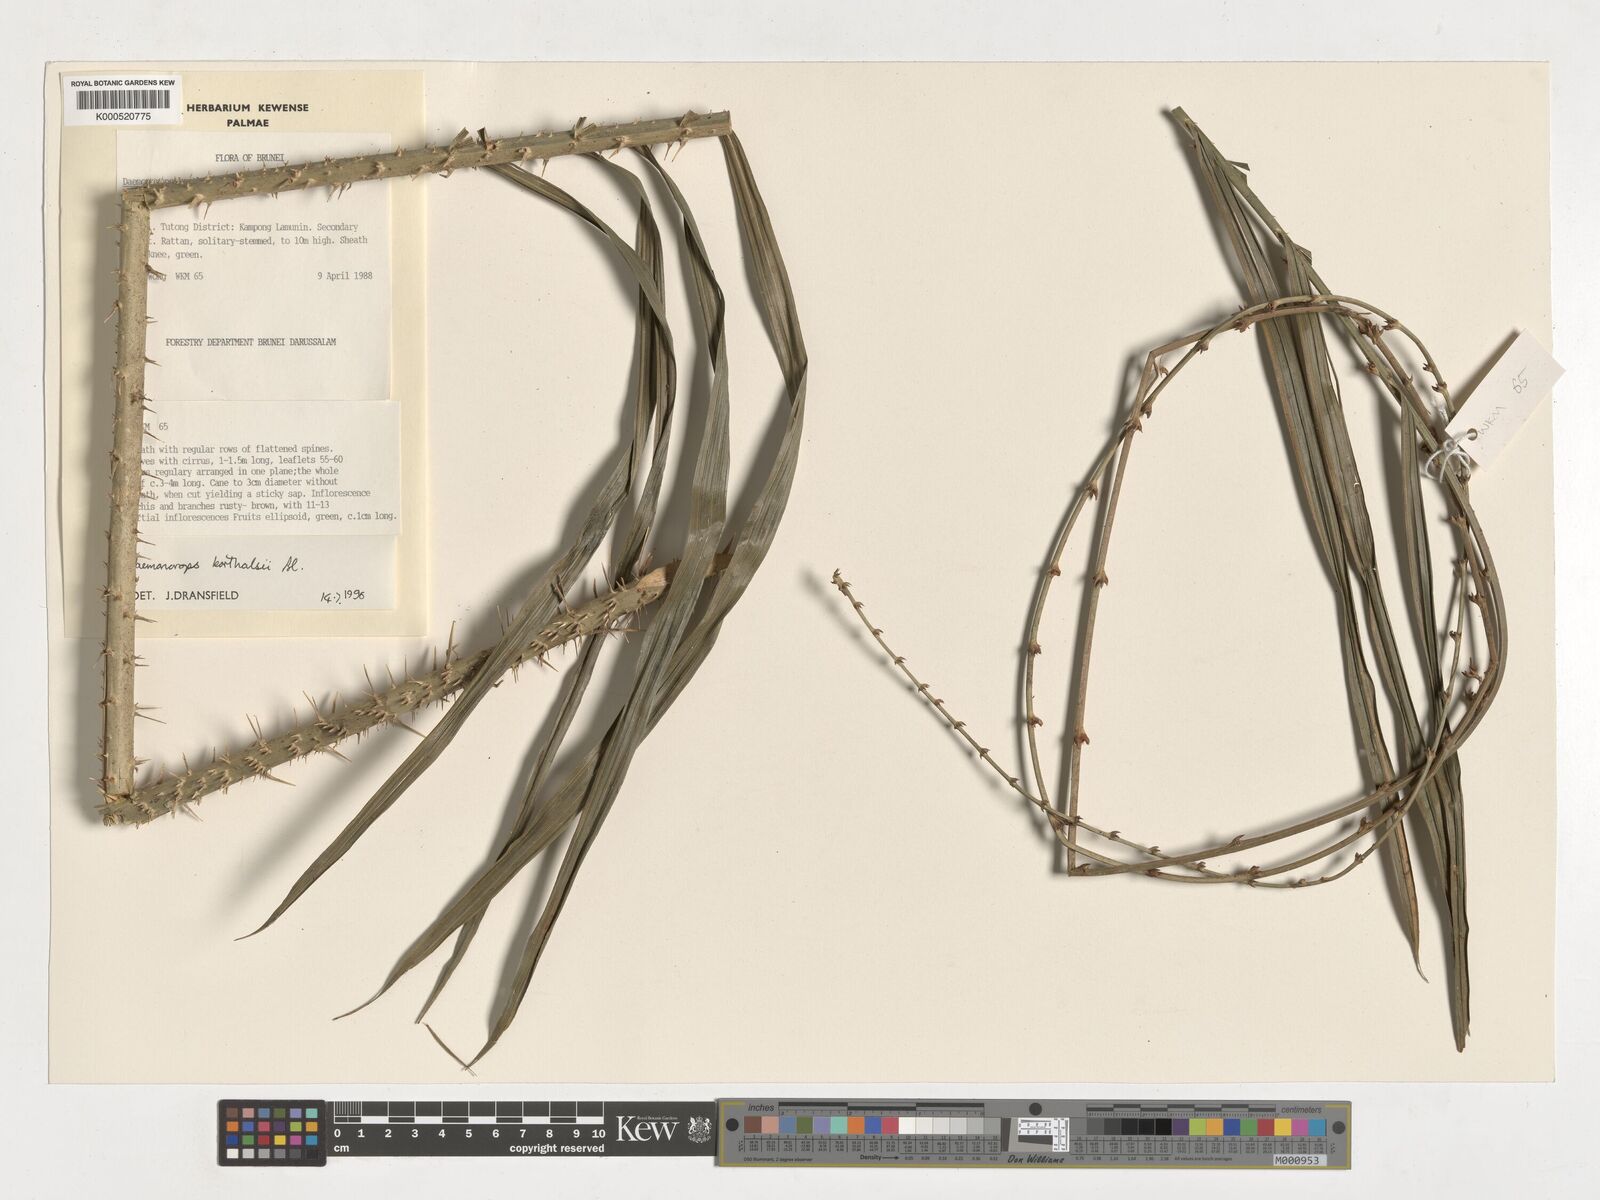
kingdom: Plantae
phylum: Tracheophyta
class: Liliopsida
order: Arecales
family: Arecaceae
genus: Calamus
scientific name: Calamus hirsutus
